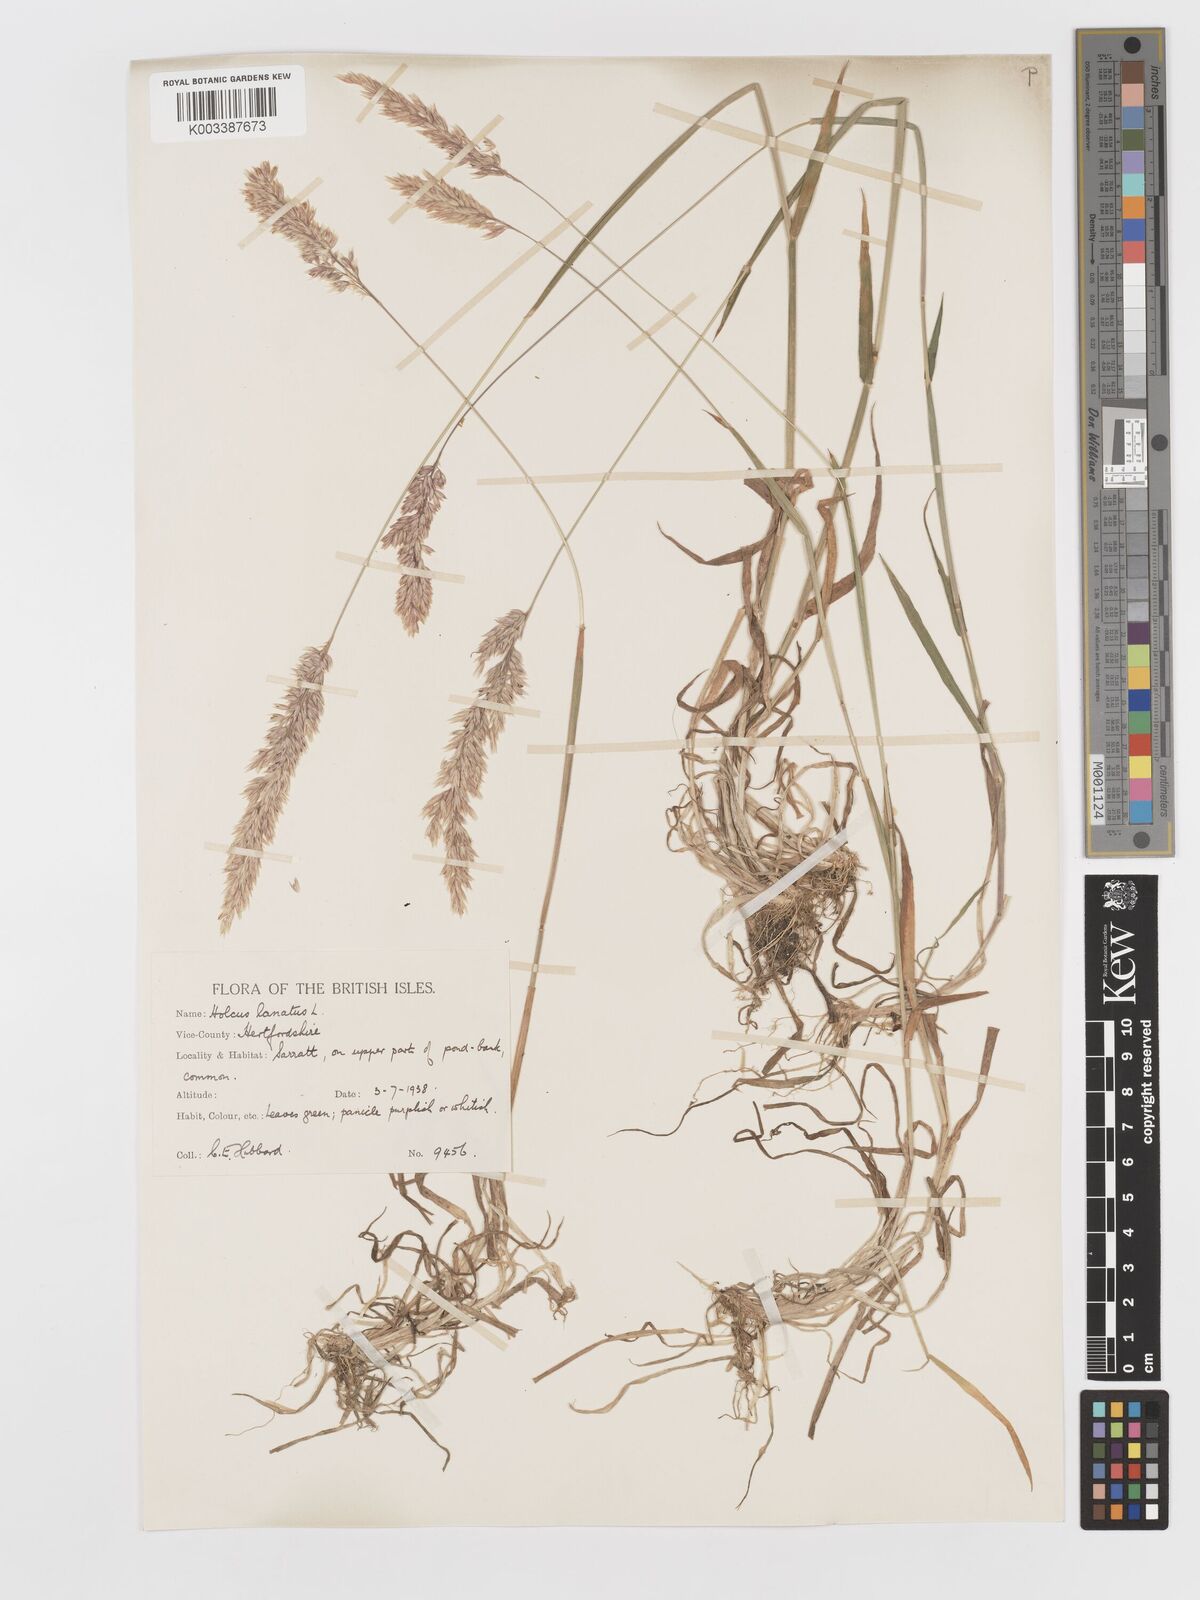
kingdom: Plantae
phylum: Tracheophyta
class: Liliopsida
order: Poales
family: Poaceae
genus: Holcus
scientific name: Holcus lanatus
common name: Yorkshire-fog
